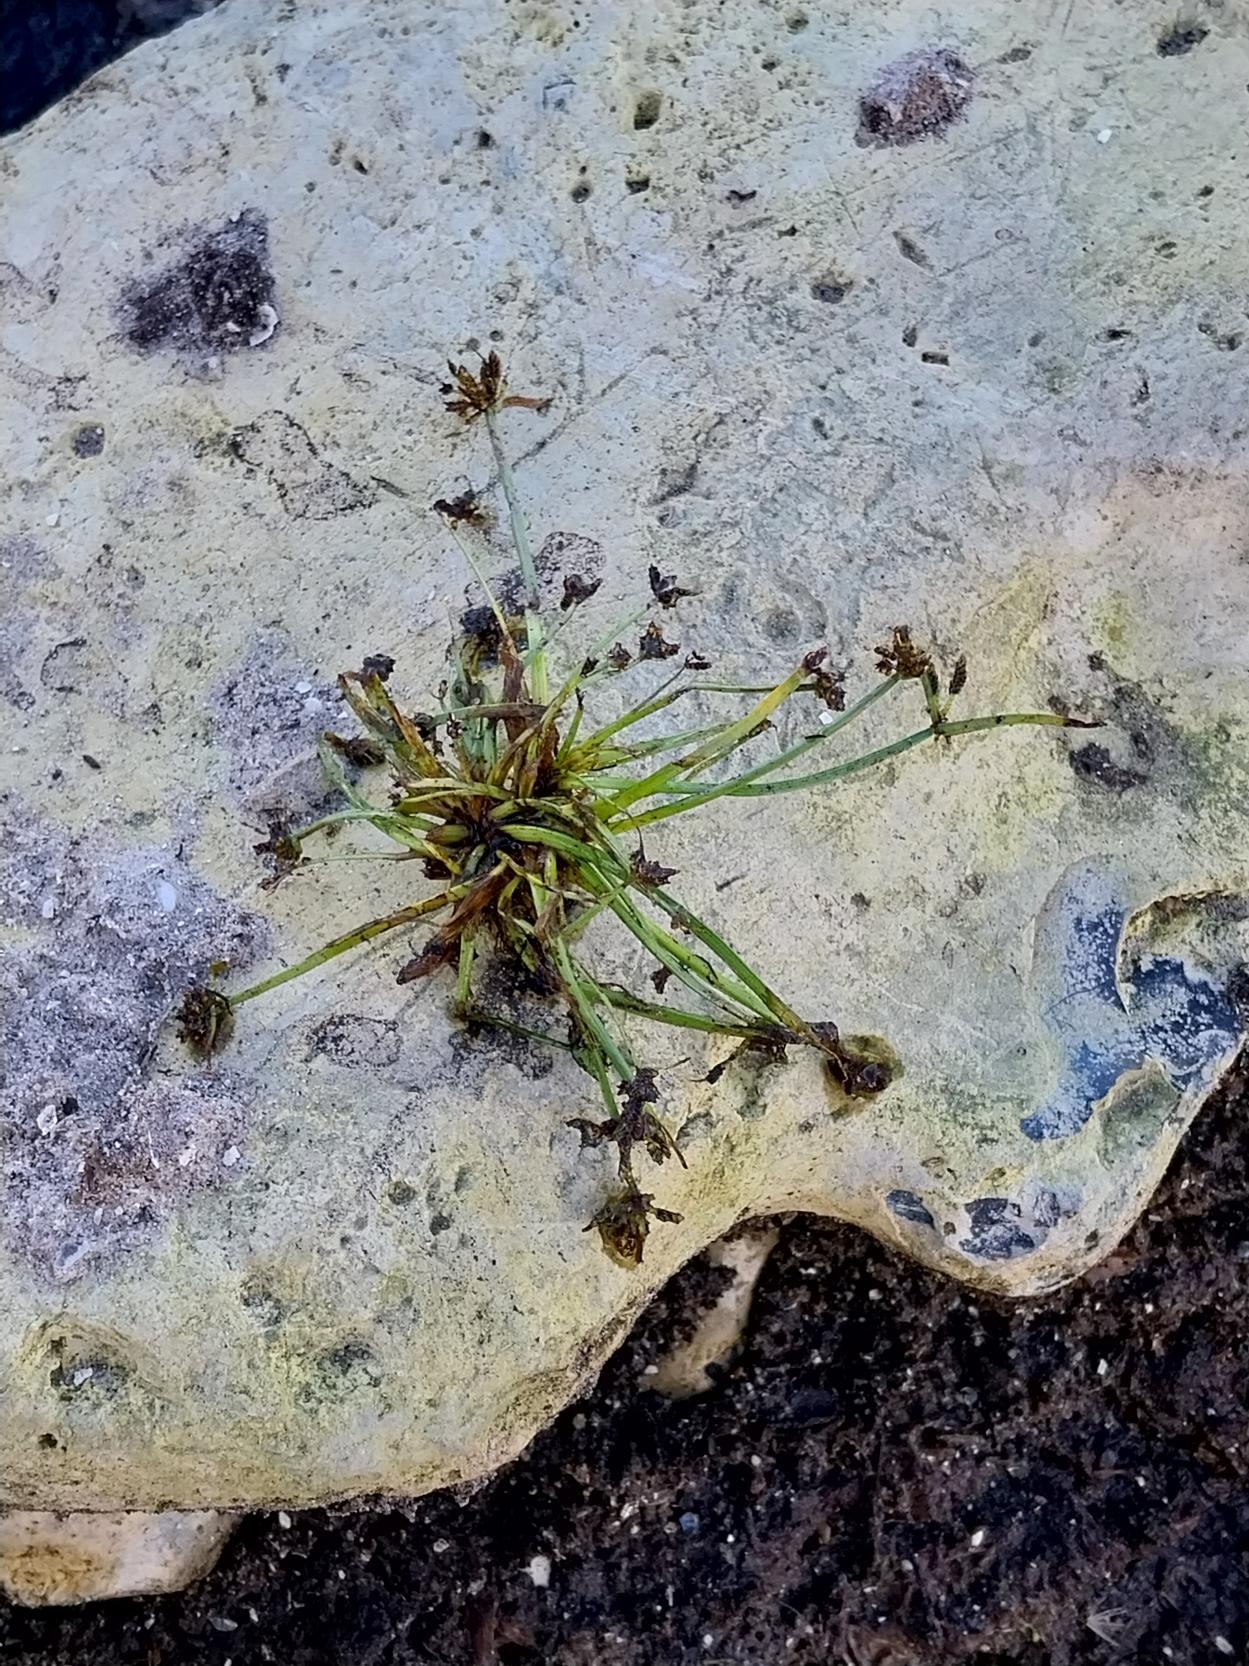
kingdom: Plantae
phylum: Tracheophyta
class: Liliopsida
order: Poales
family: Cyperaceae
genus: Cyperus
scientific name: Cyperus fuscus
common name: Brun fladaks
